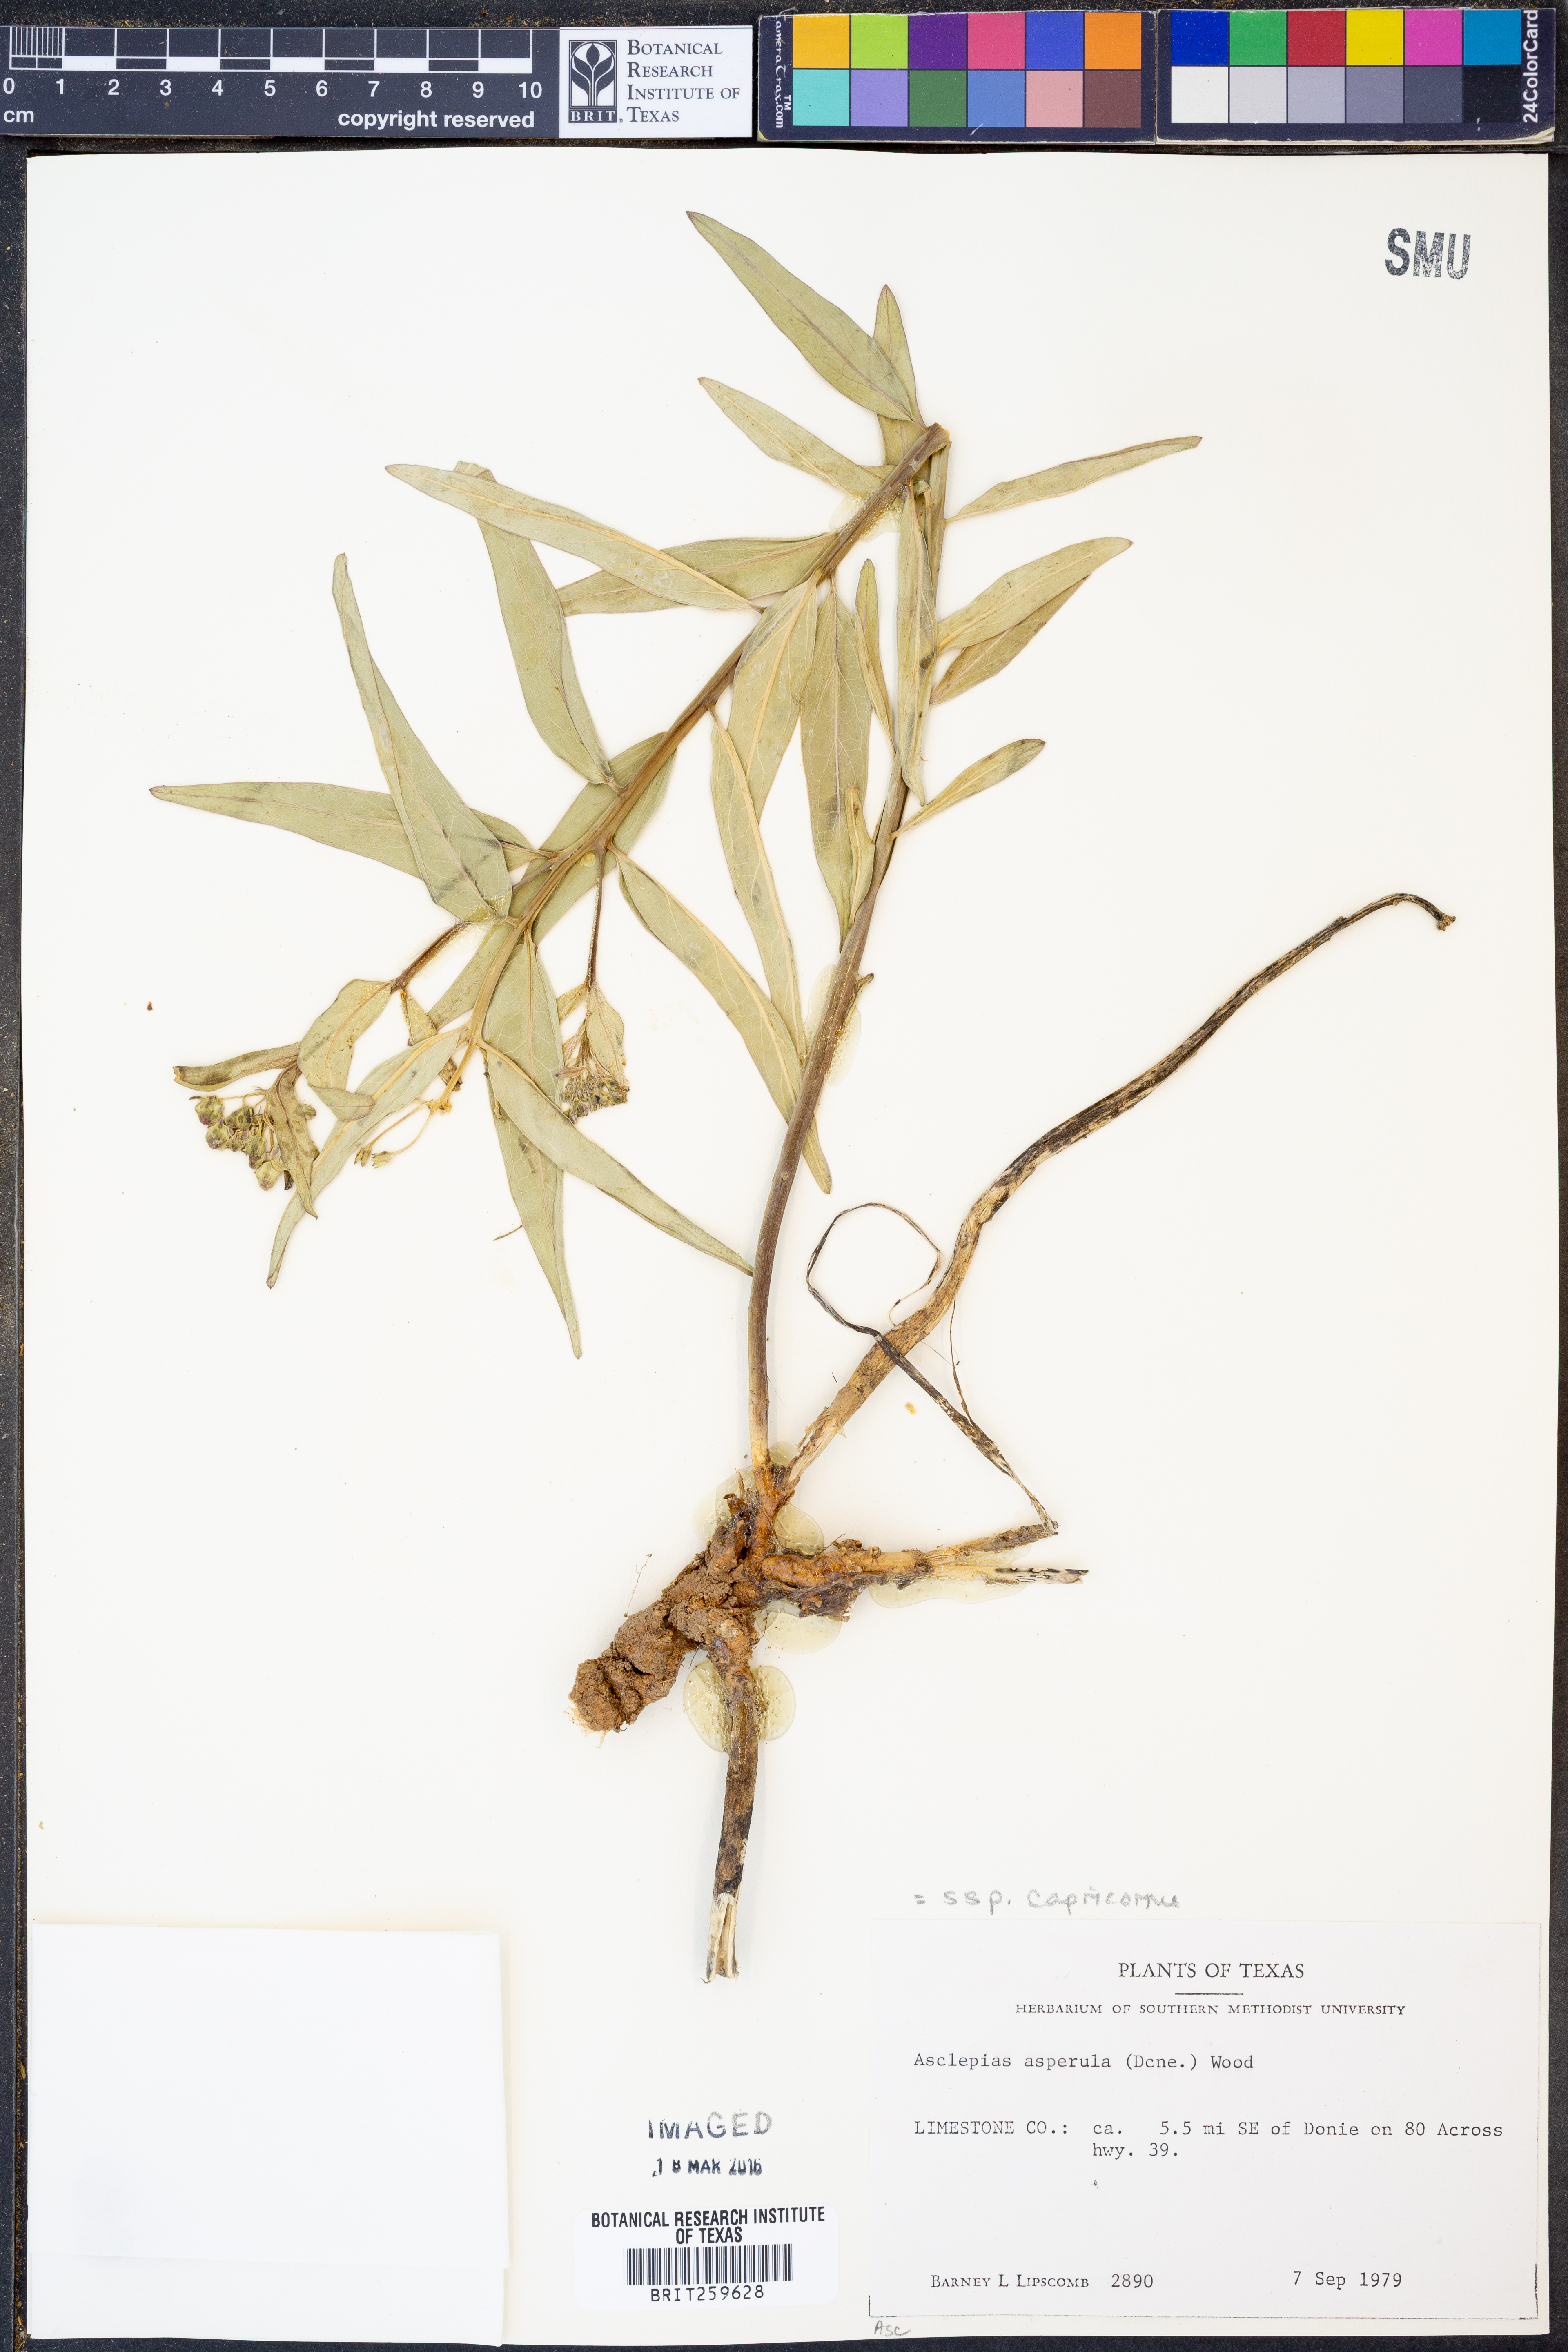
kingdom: Plantae
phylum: Tracheophyta
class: Magnoliopsida
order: Gentianales
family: Apocynaceae
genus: Asclepias
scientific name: Asclepias asperula
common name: Antelope horns
